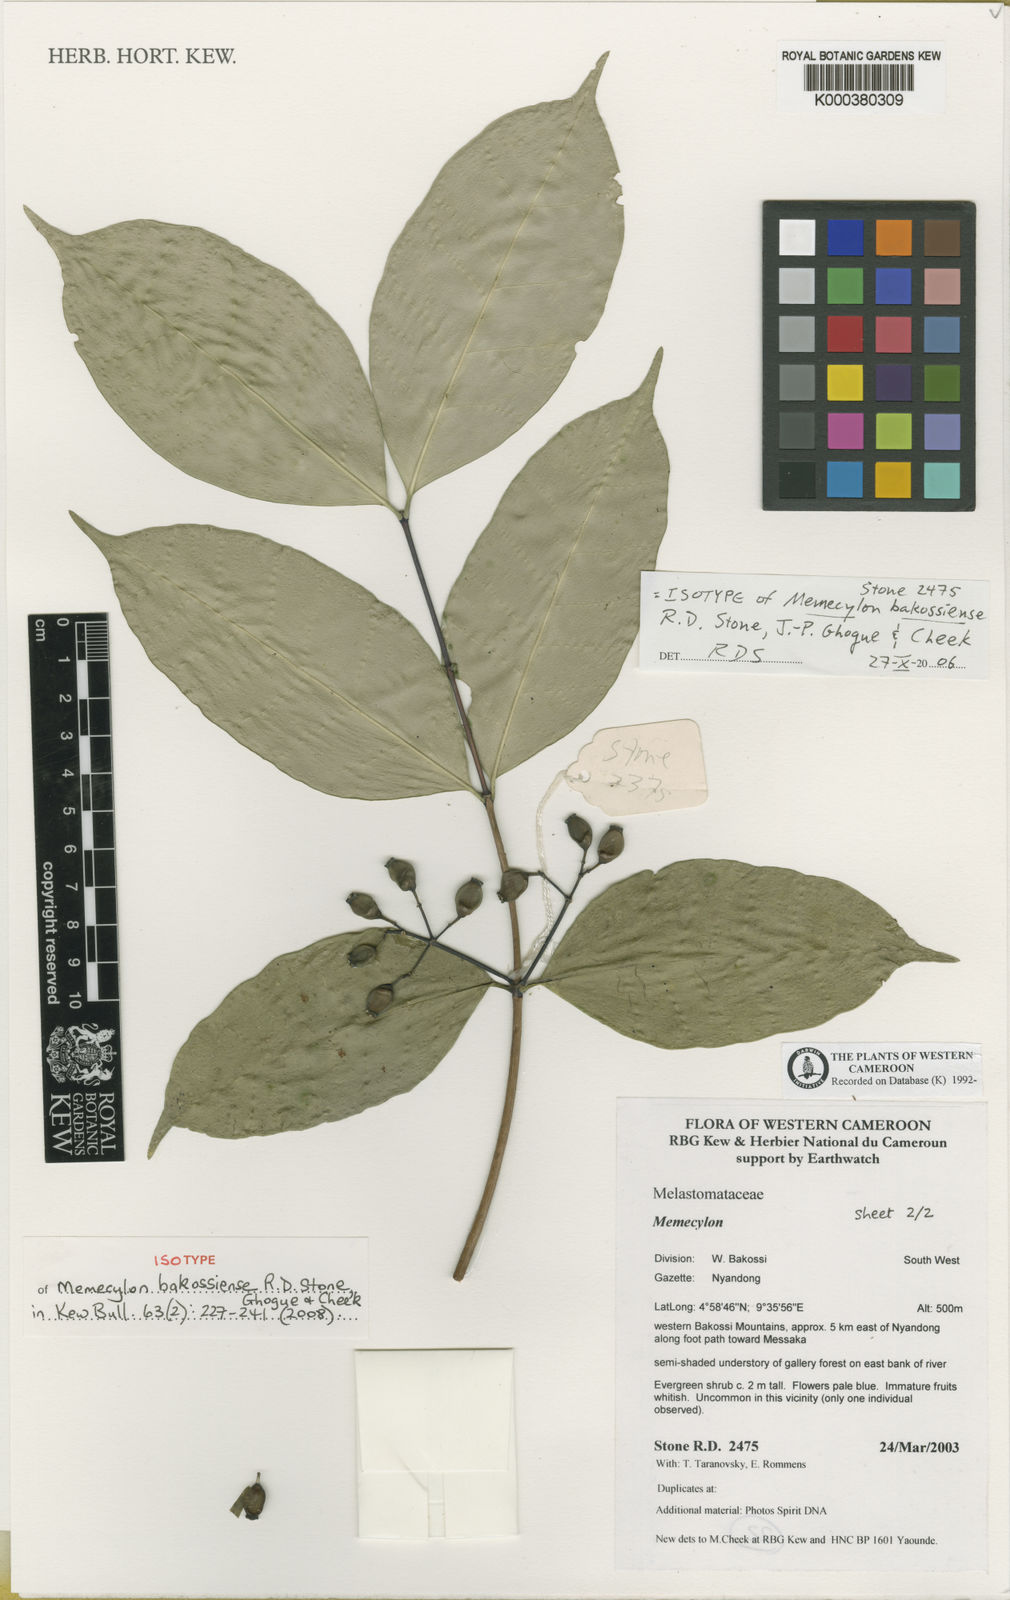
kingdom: Plantae
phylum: Tracheophyta
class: Magnoliopsida
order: Myrtales
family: Melastomataceae
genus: Memecylon
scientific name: Memecylon bakossiense
